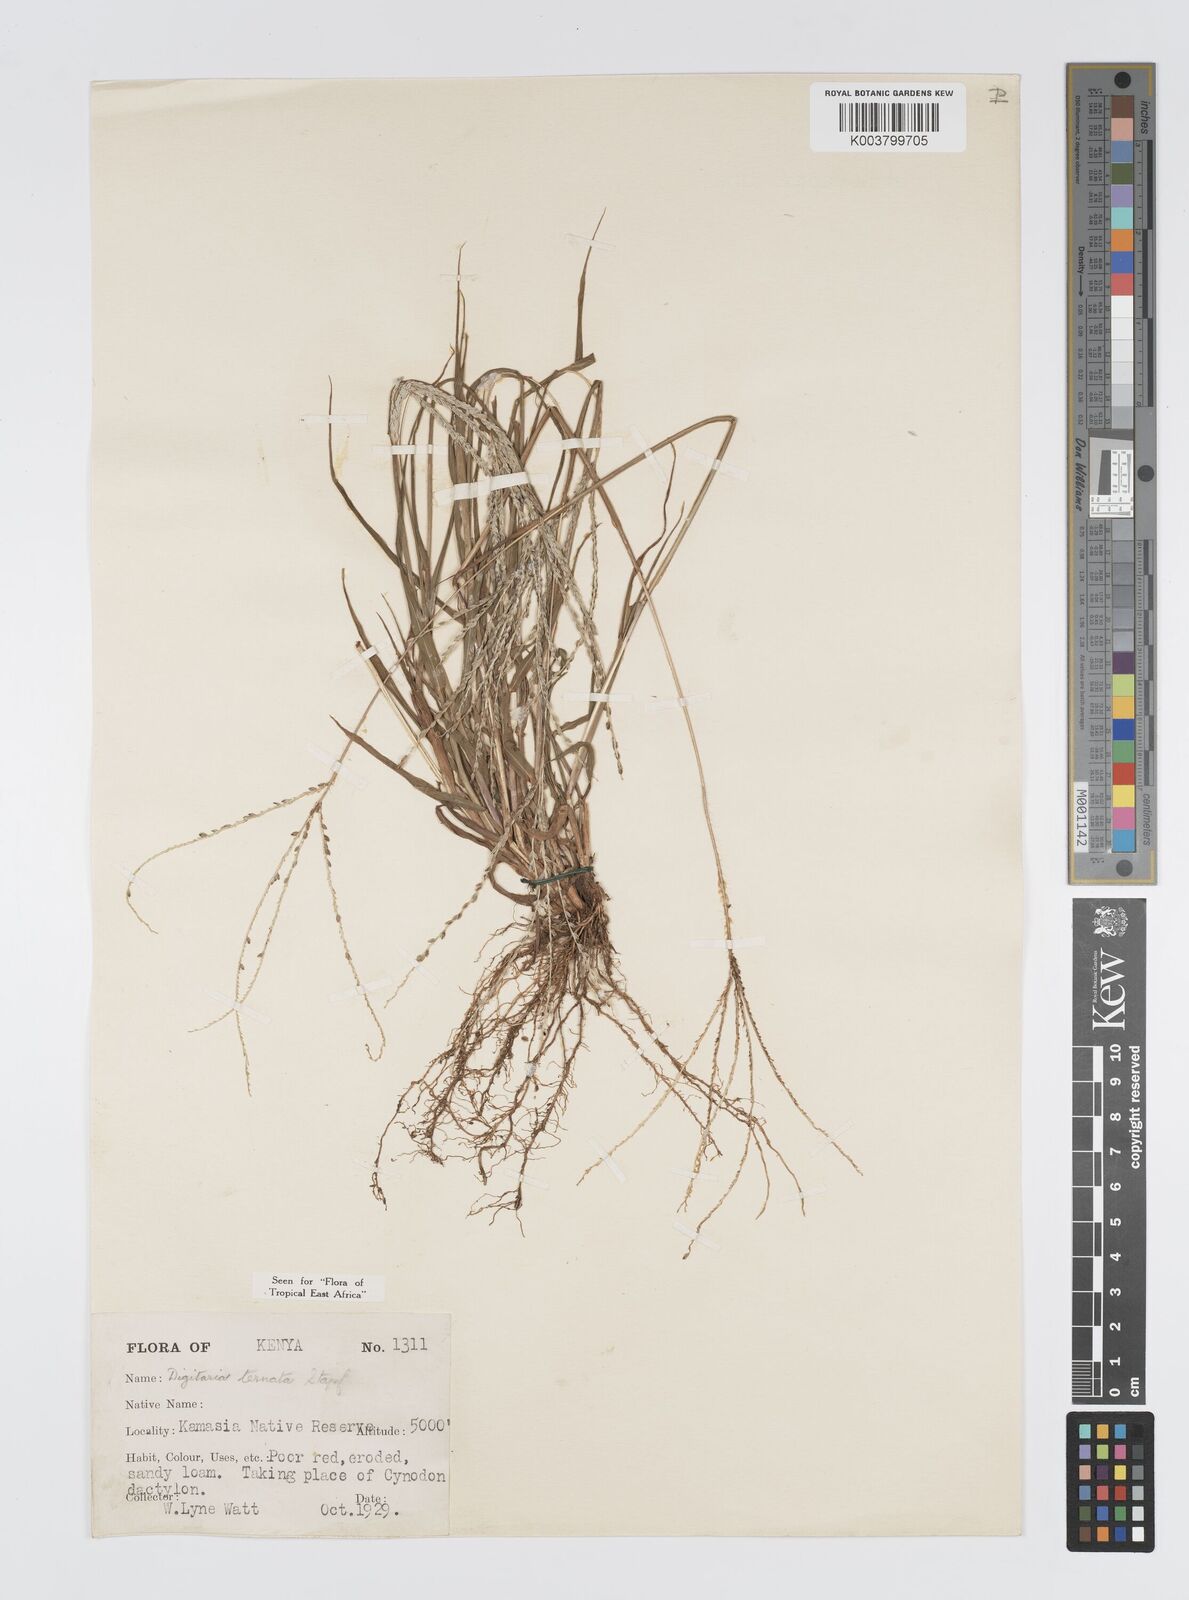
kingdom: Plantae
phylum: Tracheophyta
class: Liliopsida
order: Poales
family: Poaceae
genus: Digitaria
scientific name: Digitaria ternata
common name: Blackseed crabgrass
